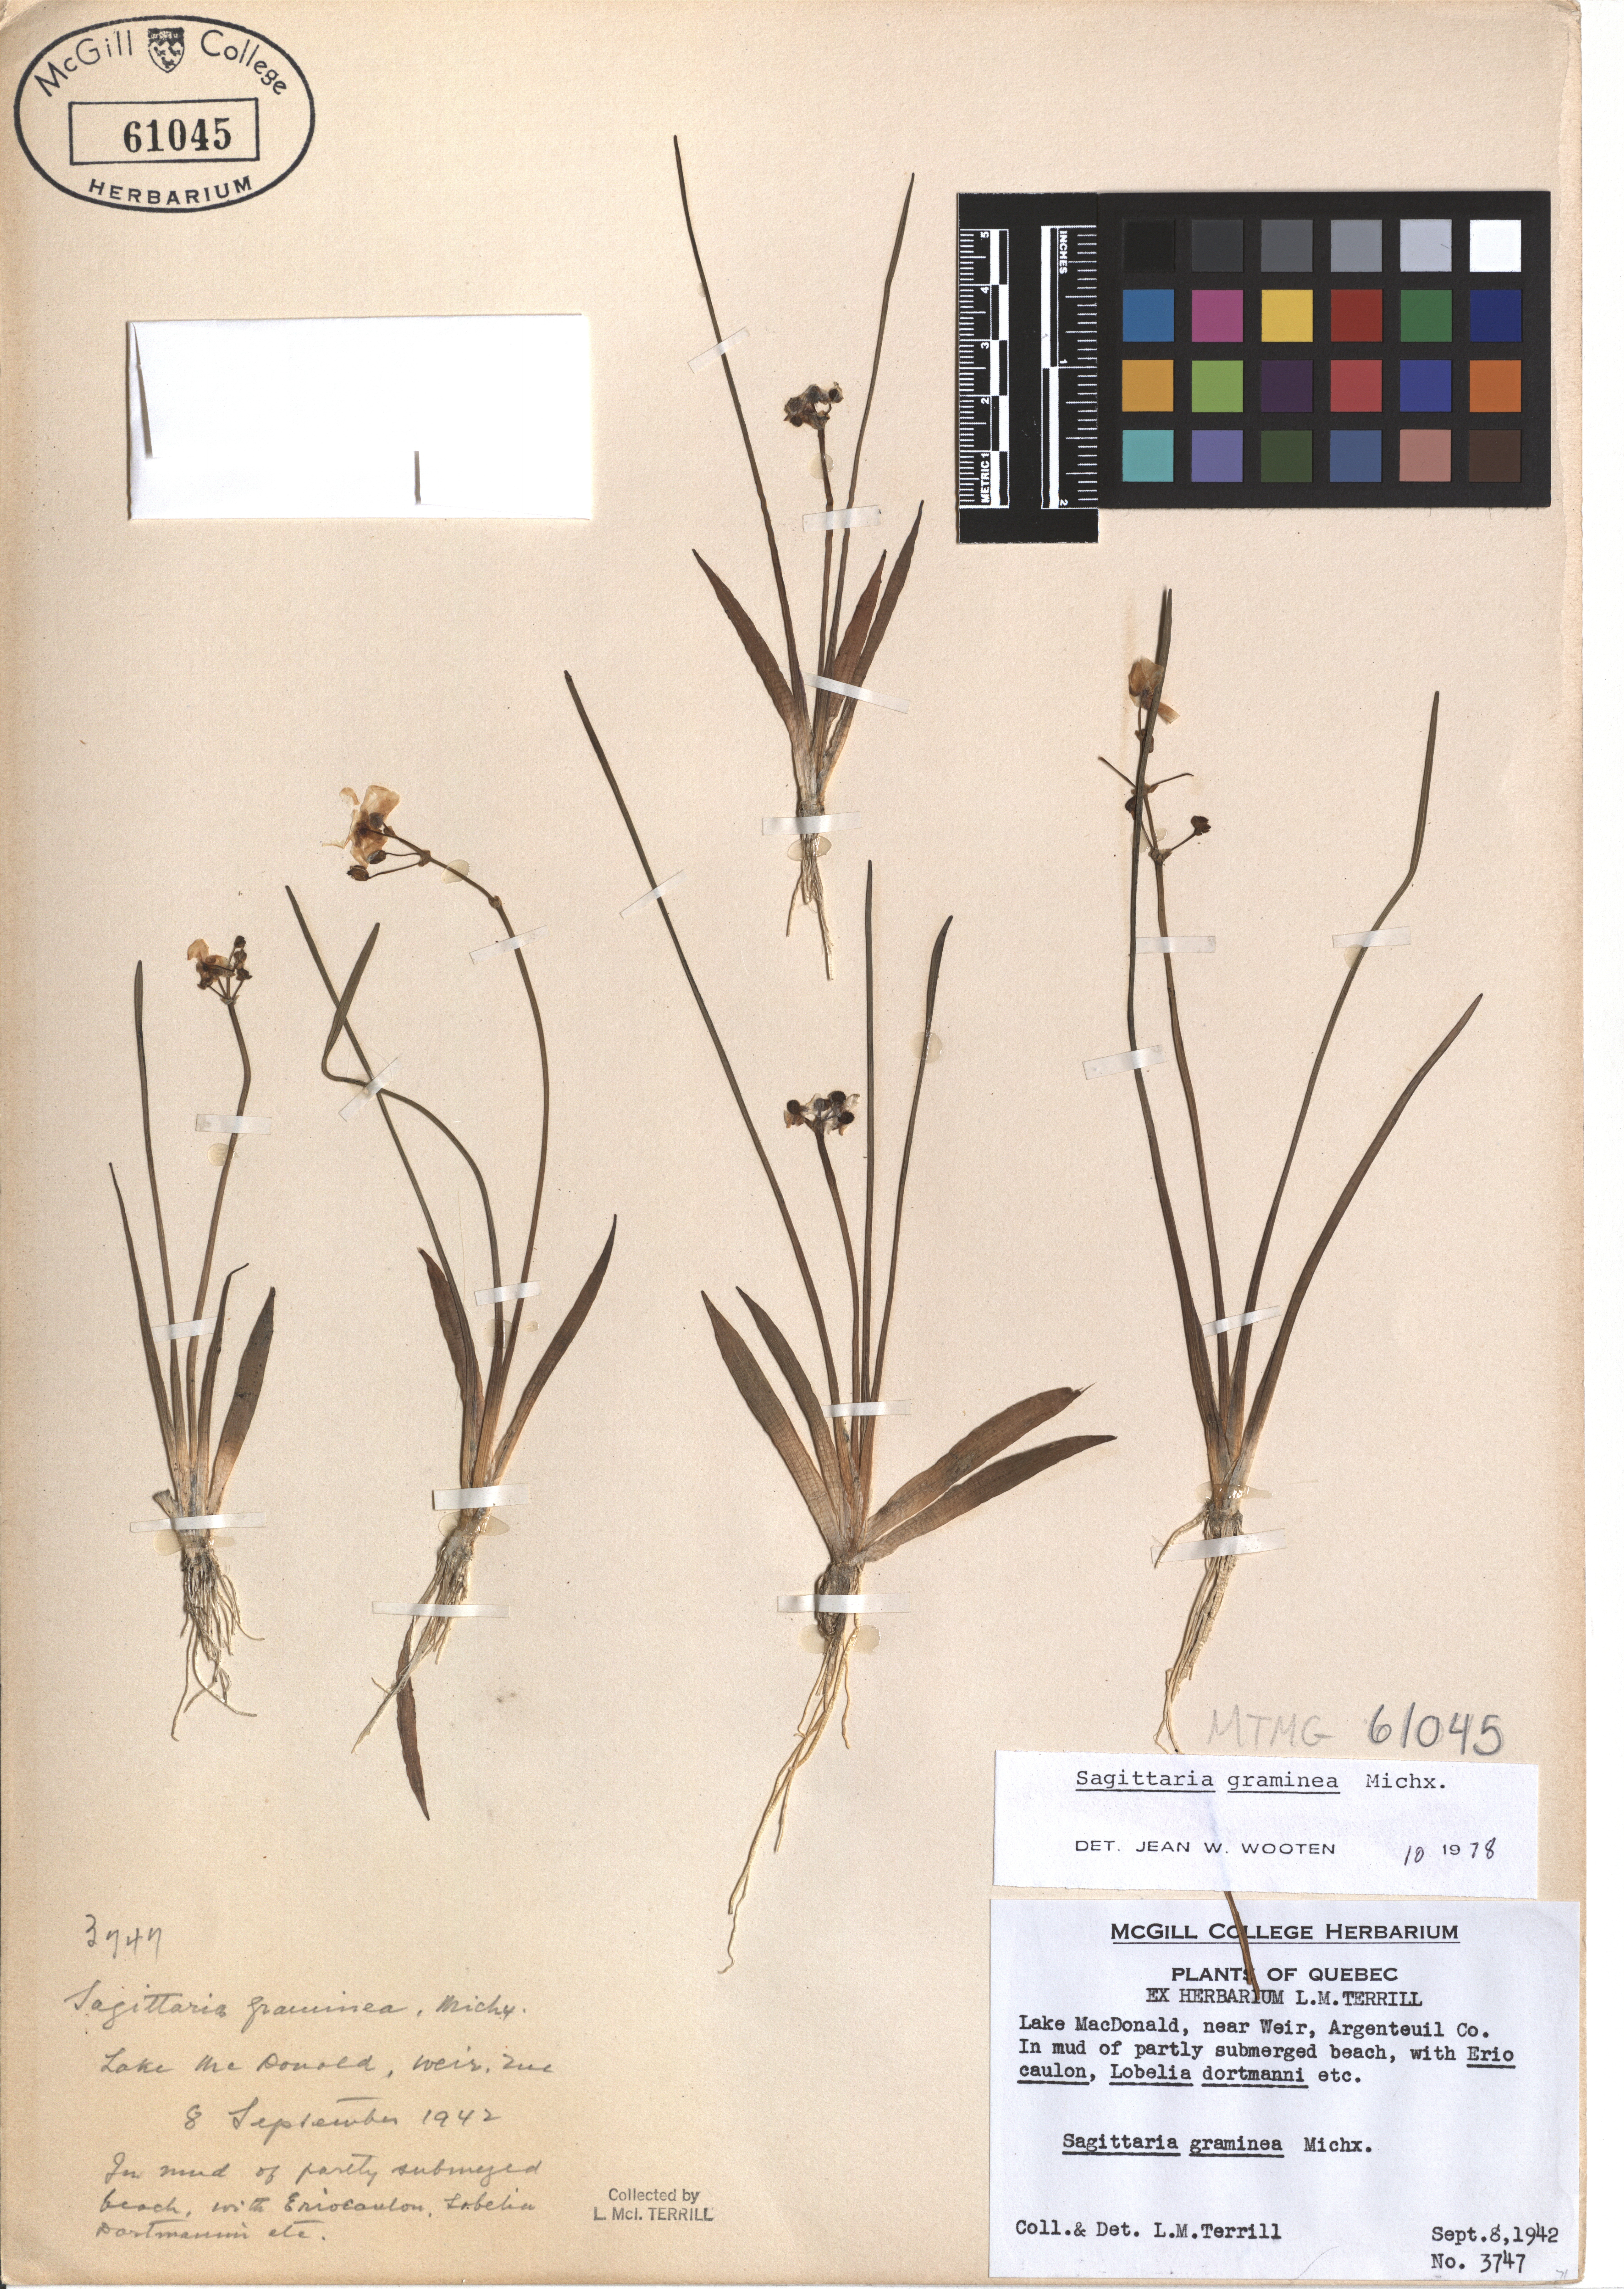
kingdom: Plantae
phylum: Tracheophyta
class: Liliopsida
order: Alismatales
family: Alismataceae
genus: Sagittaria
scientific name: Sagittaria graminea
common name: Grass-leaved arrowhead
